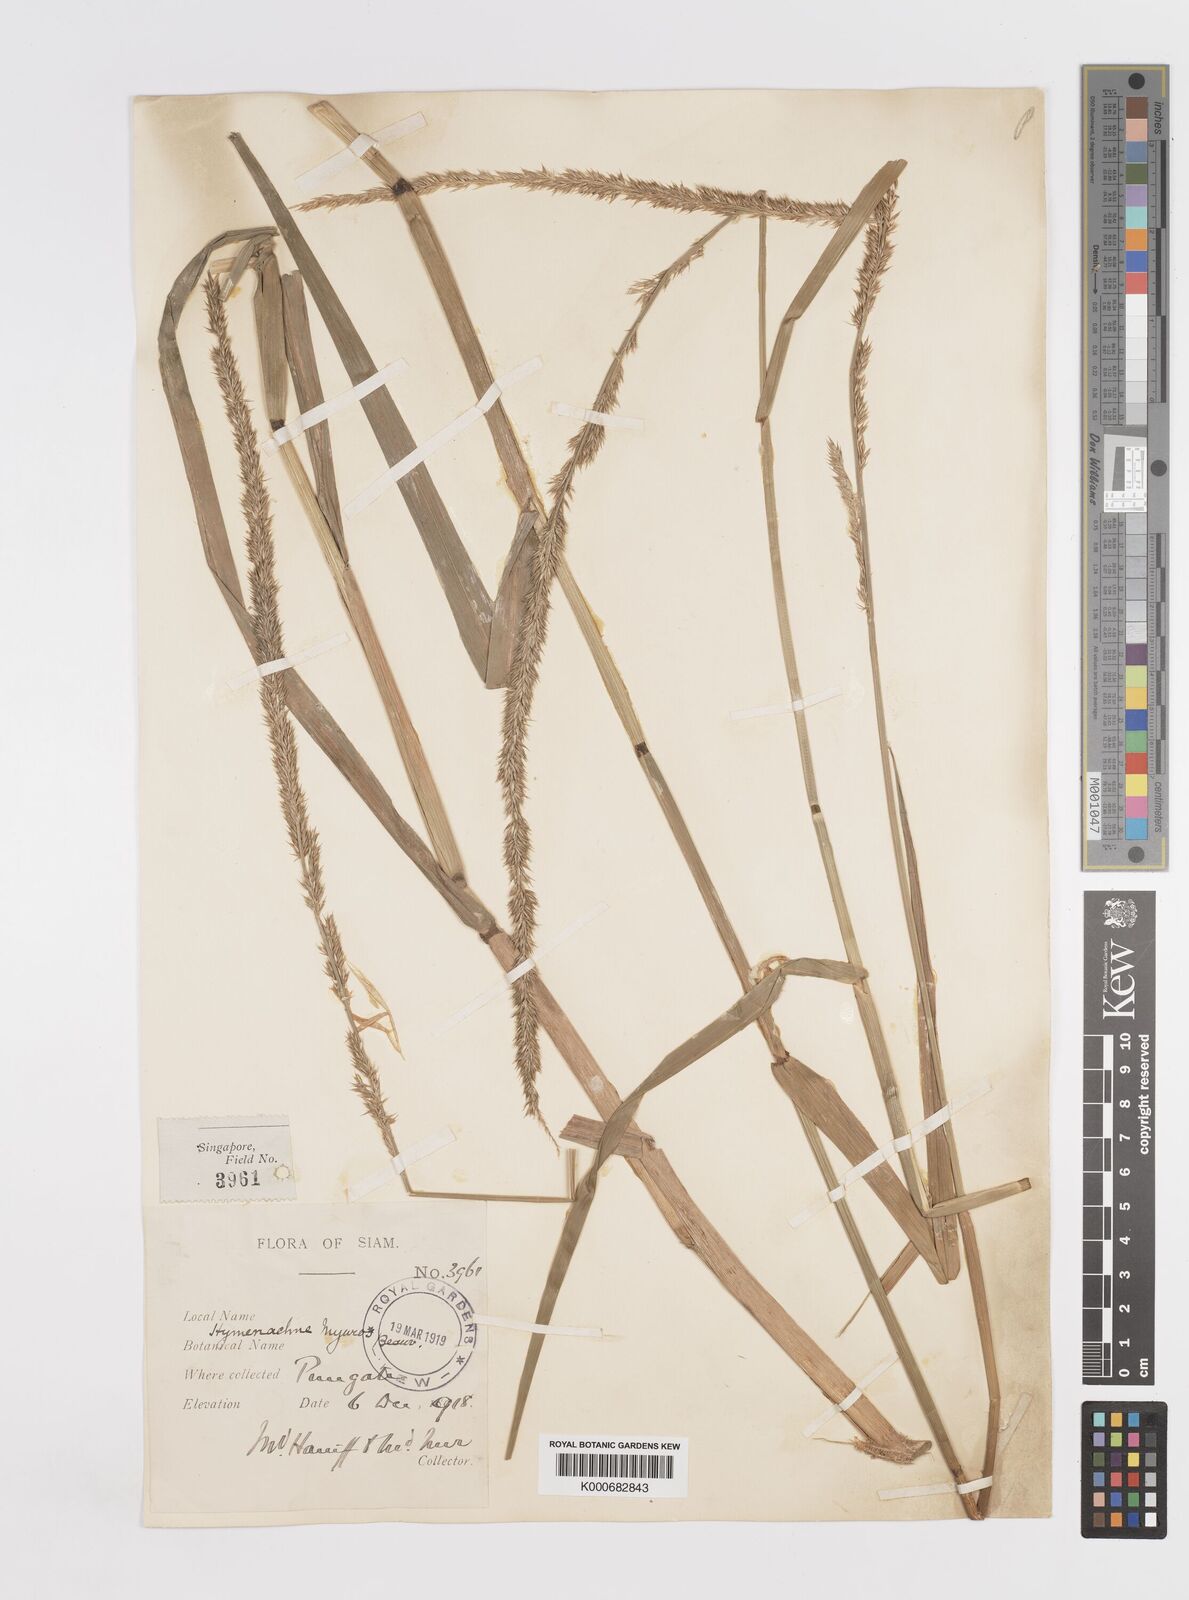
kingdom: Plantae
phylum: Tracheophyta
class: Liliopsida
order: Poales
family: Poaceae
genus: Hymenachne
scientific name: Hymenachne amplexicaulis
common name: Olive hymenachne
